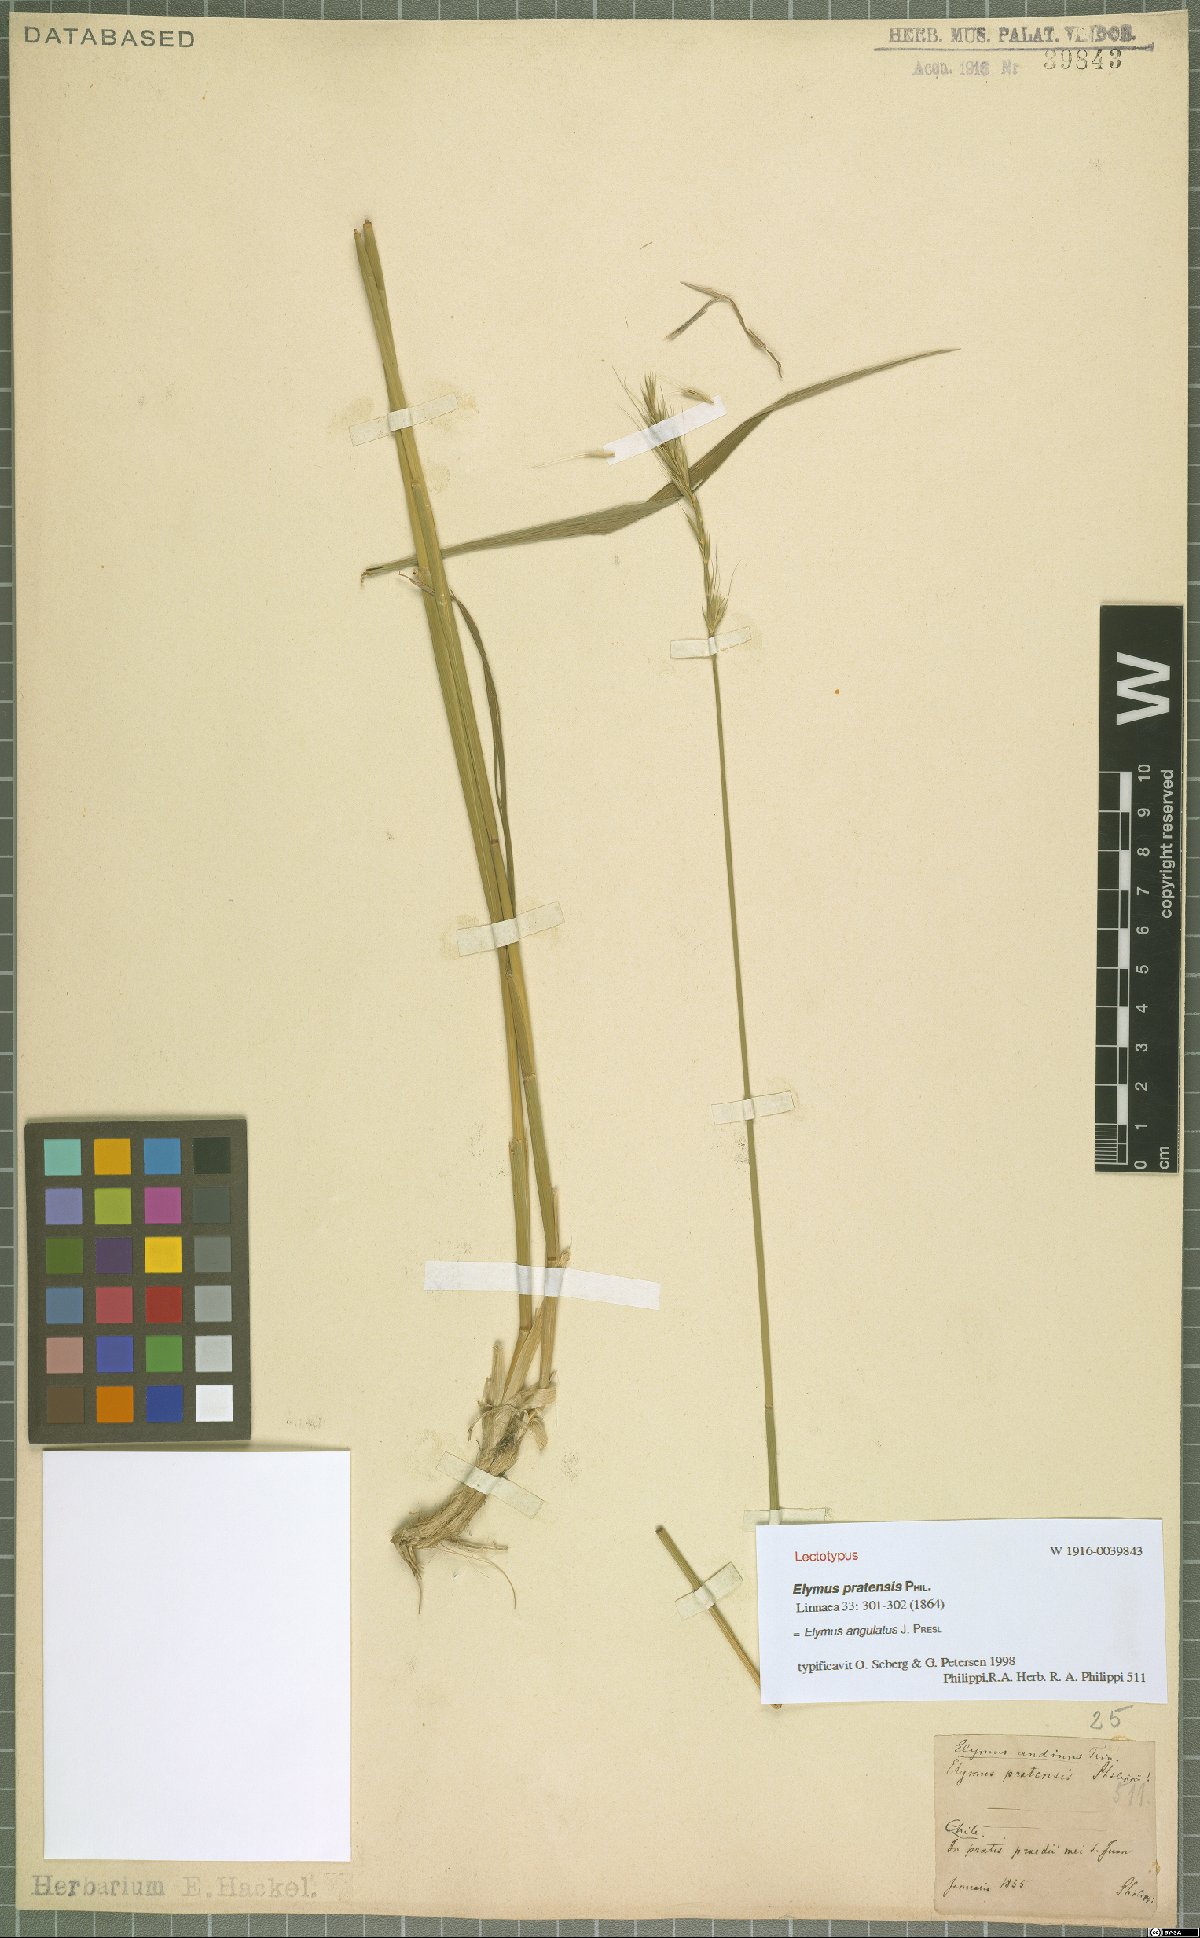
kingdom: Plantae
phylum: Tracheophyta
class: Liliopsida
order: Poales
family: Poaceae
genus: Elymus
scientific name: Elymus angulatus
